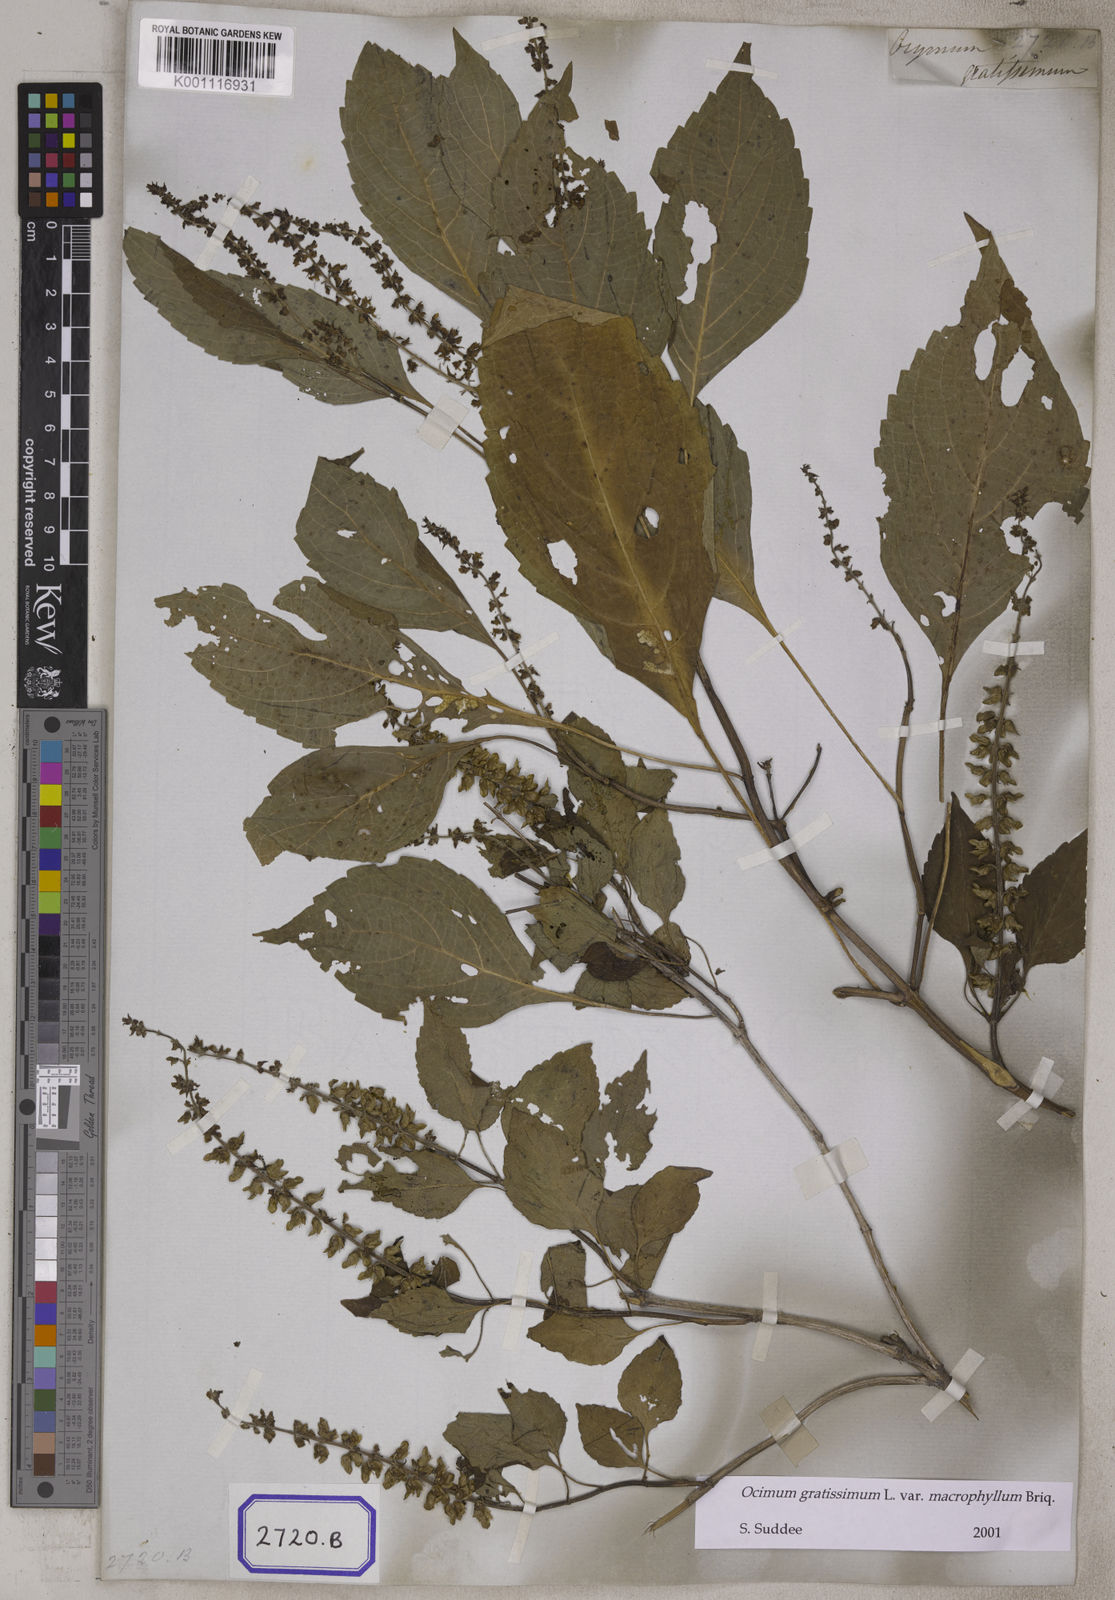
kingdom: Plantae
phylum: Tracheophyta
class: Magnoliopsida
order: Lamiales
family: Lamiaceae
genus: Ocimum
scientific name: Ocimum gratissimum
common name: African basil
